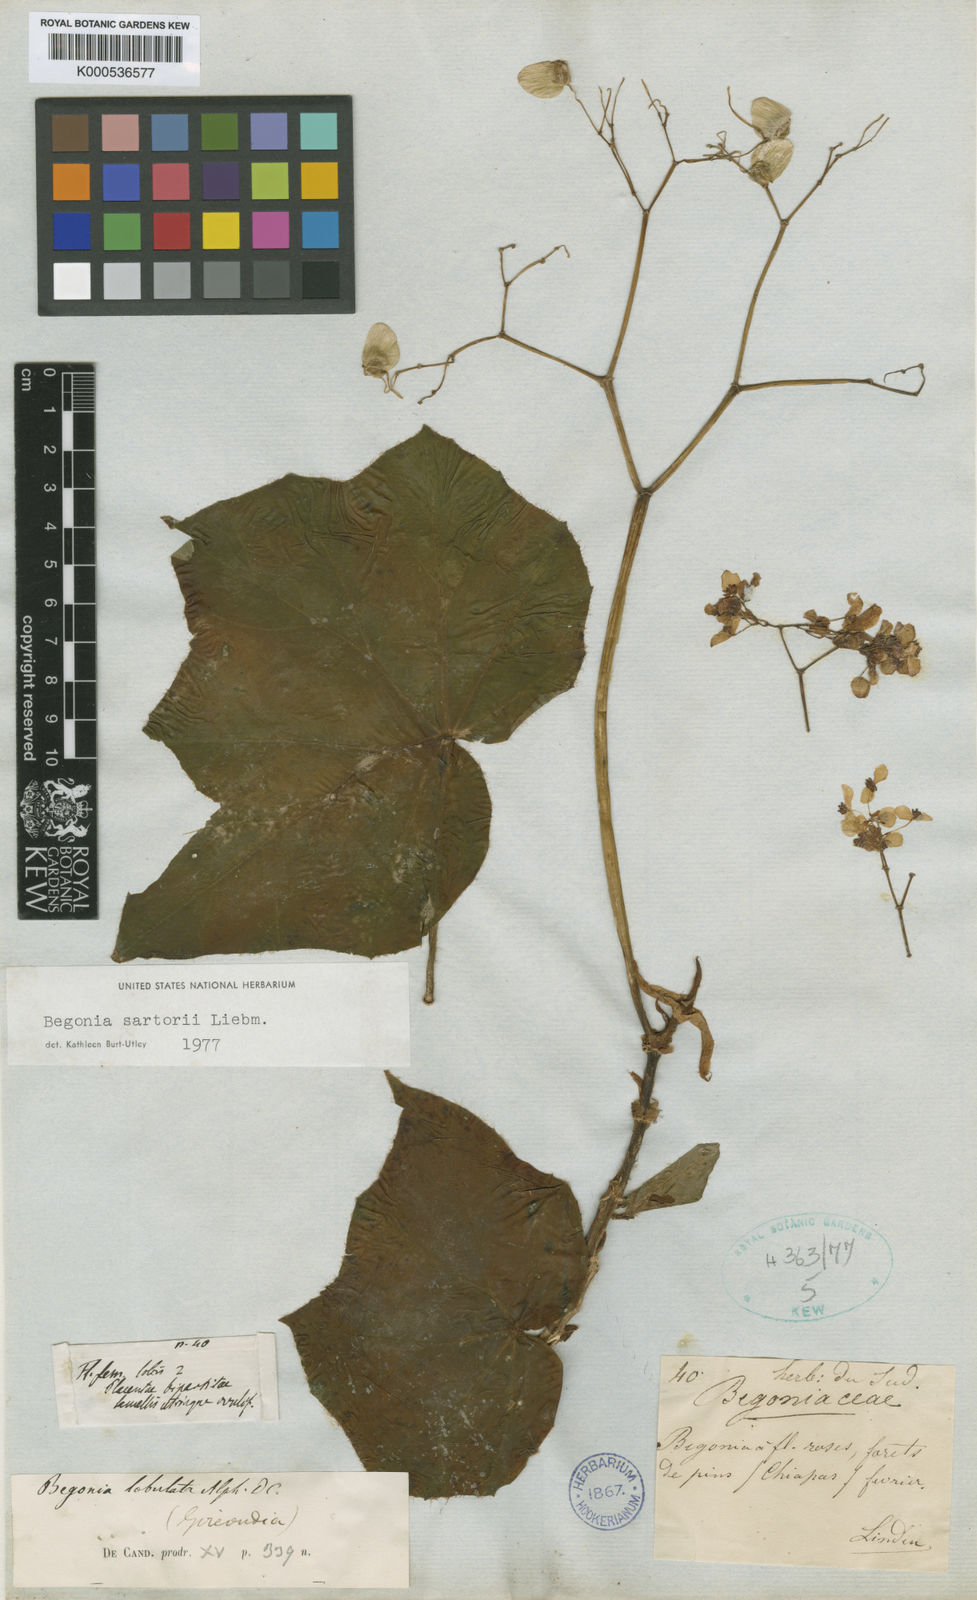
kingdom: Plantae
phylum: Tracheophyta
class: Magnoliopsida
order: Cucurbitales
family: Begoniaceae
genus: Begonia
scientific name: Begonia sartorii
